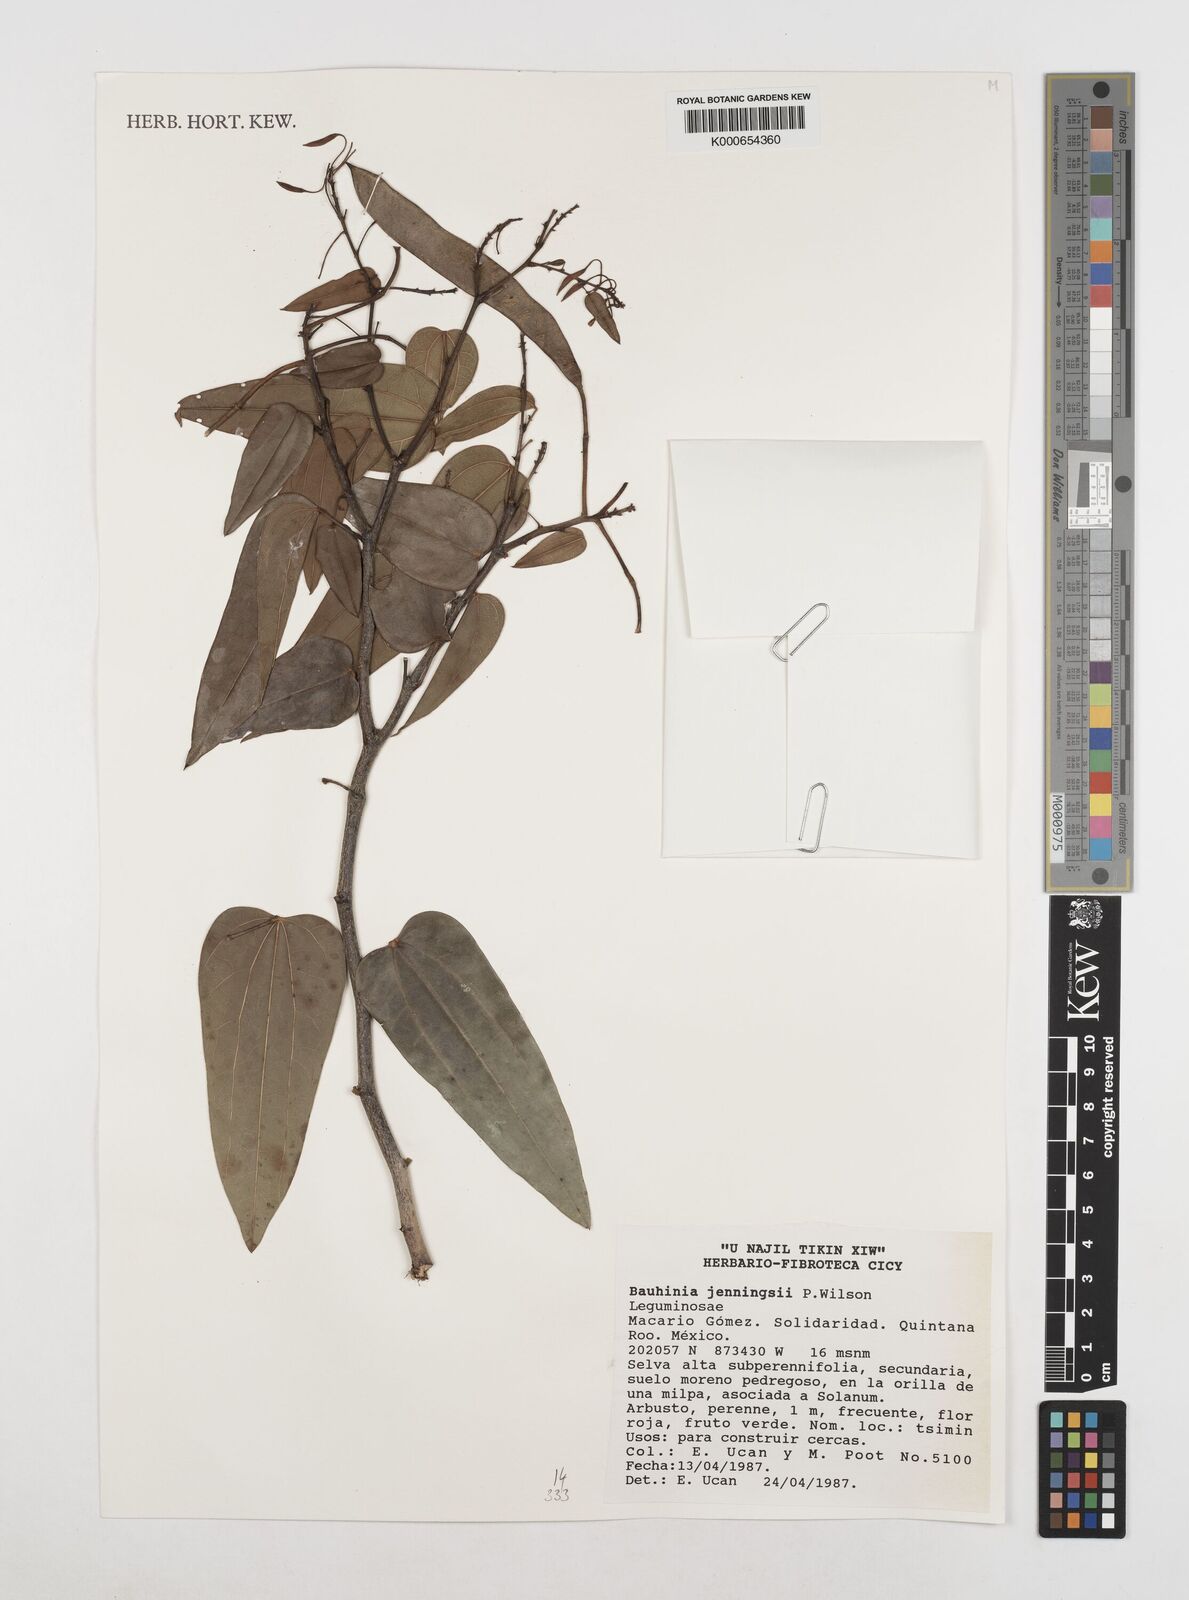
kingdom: Plantae
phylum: Tracheophyta
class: Magnoliopsida
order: Fabales
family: Fabaceae
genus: Bauhinia
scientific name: Bauhinia jenningsii
